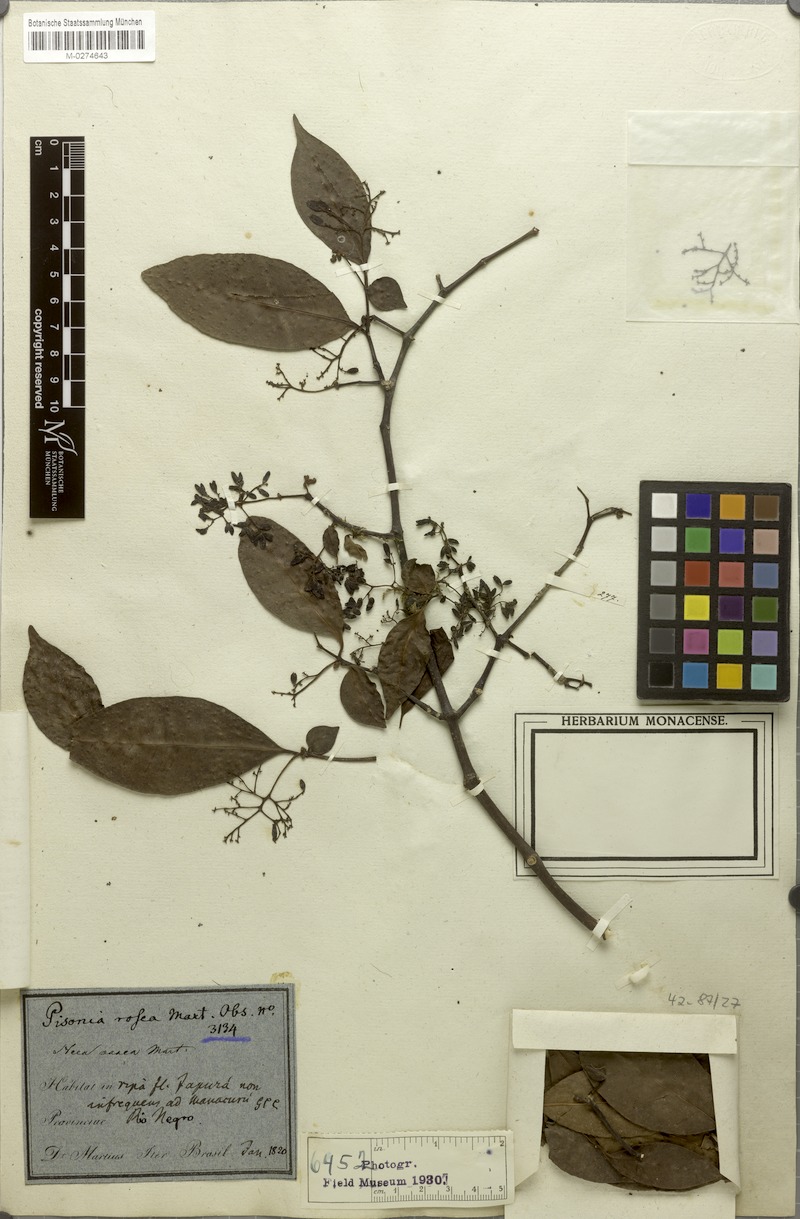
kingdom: Plantae
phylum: Tracheophyta
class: Magnoliopsida
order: Caryophyllales
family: Nyctaginaceae
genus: Neea
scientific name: Neea oppositifolia
